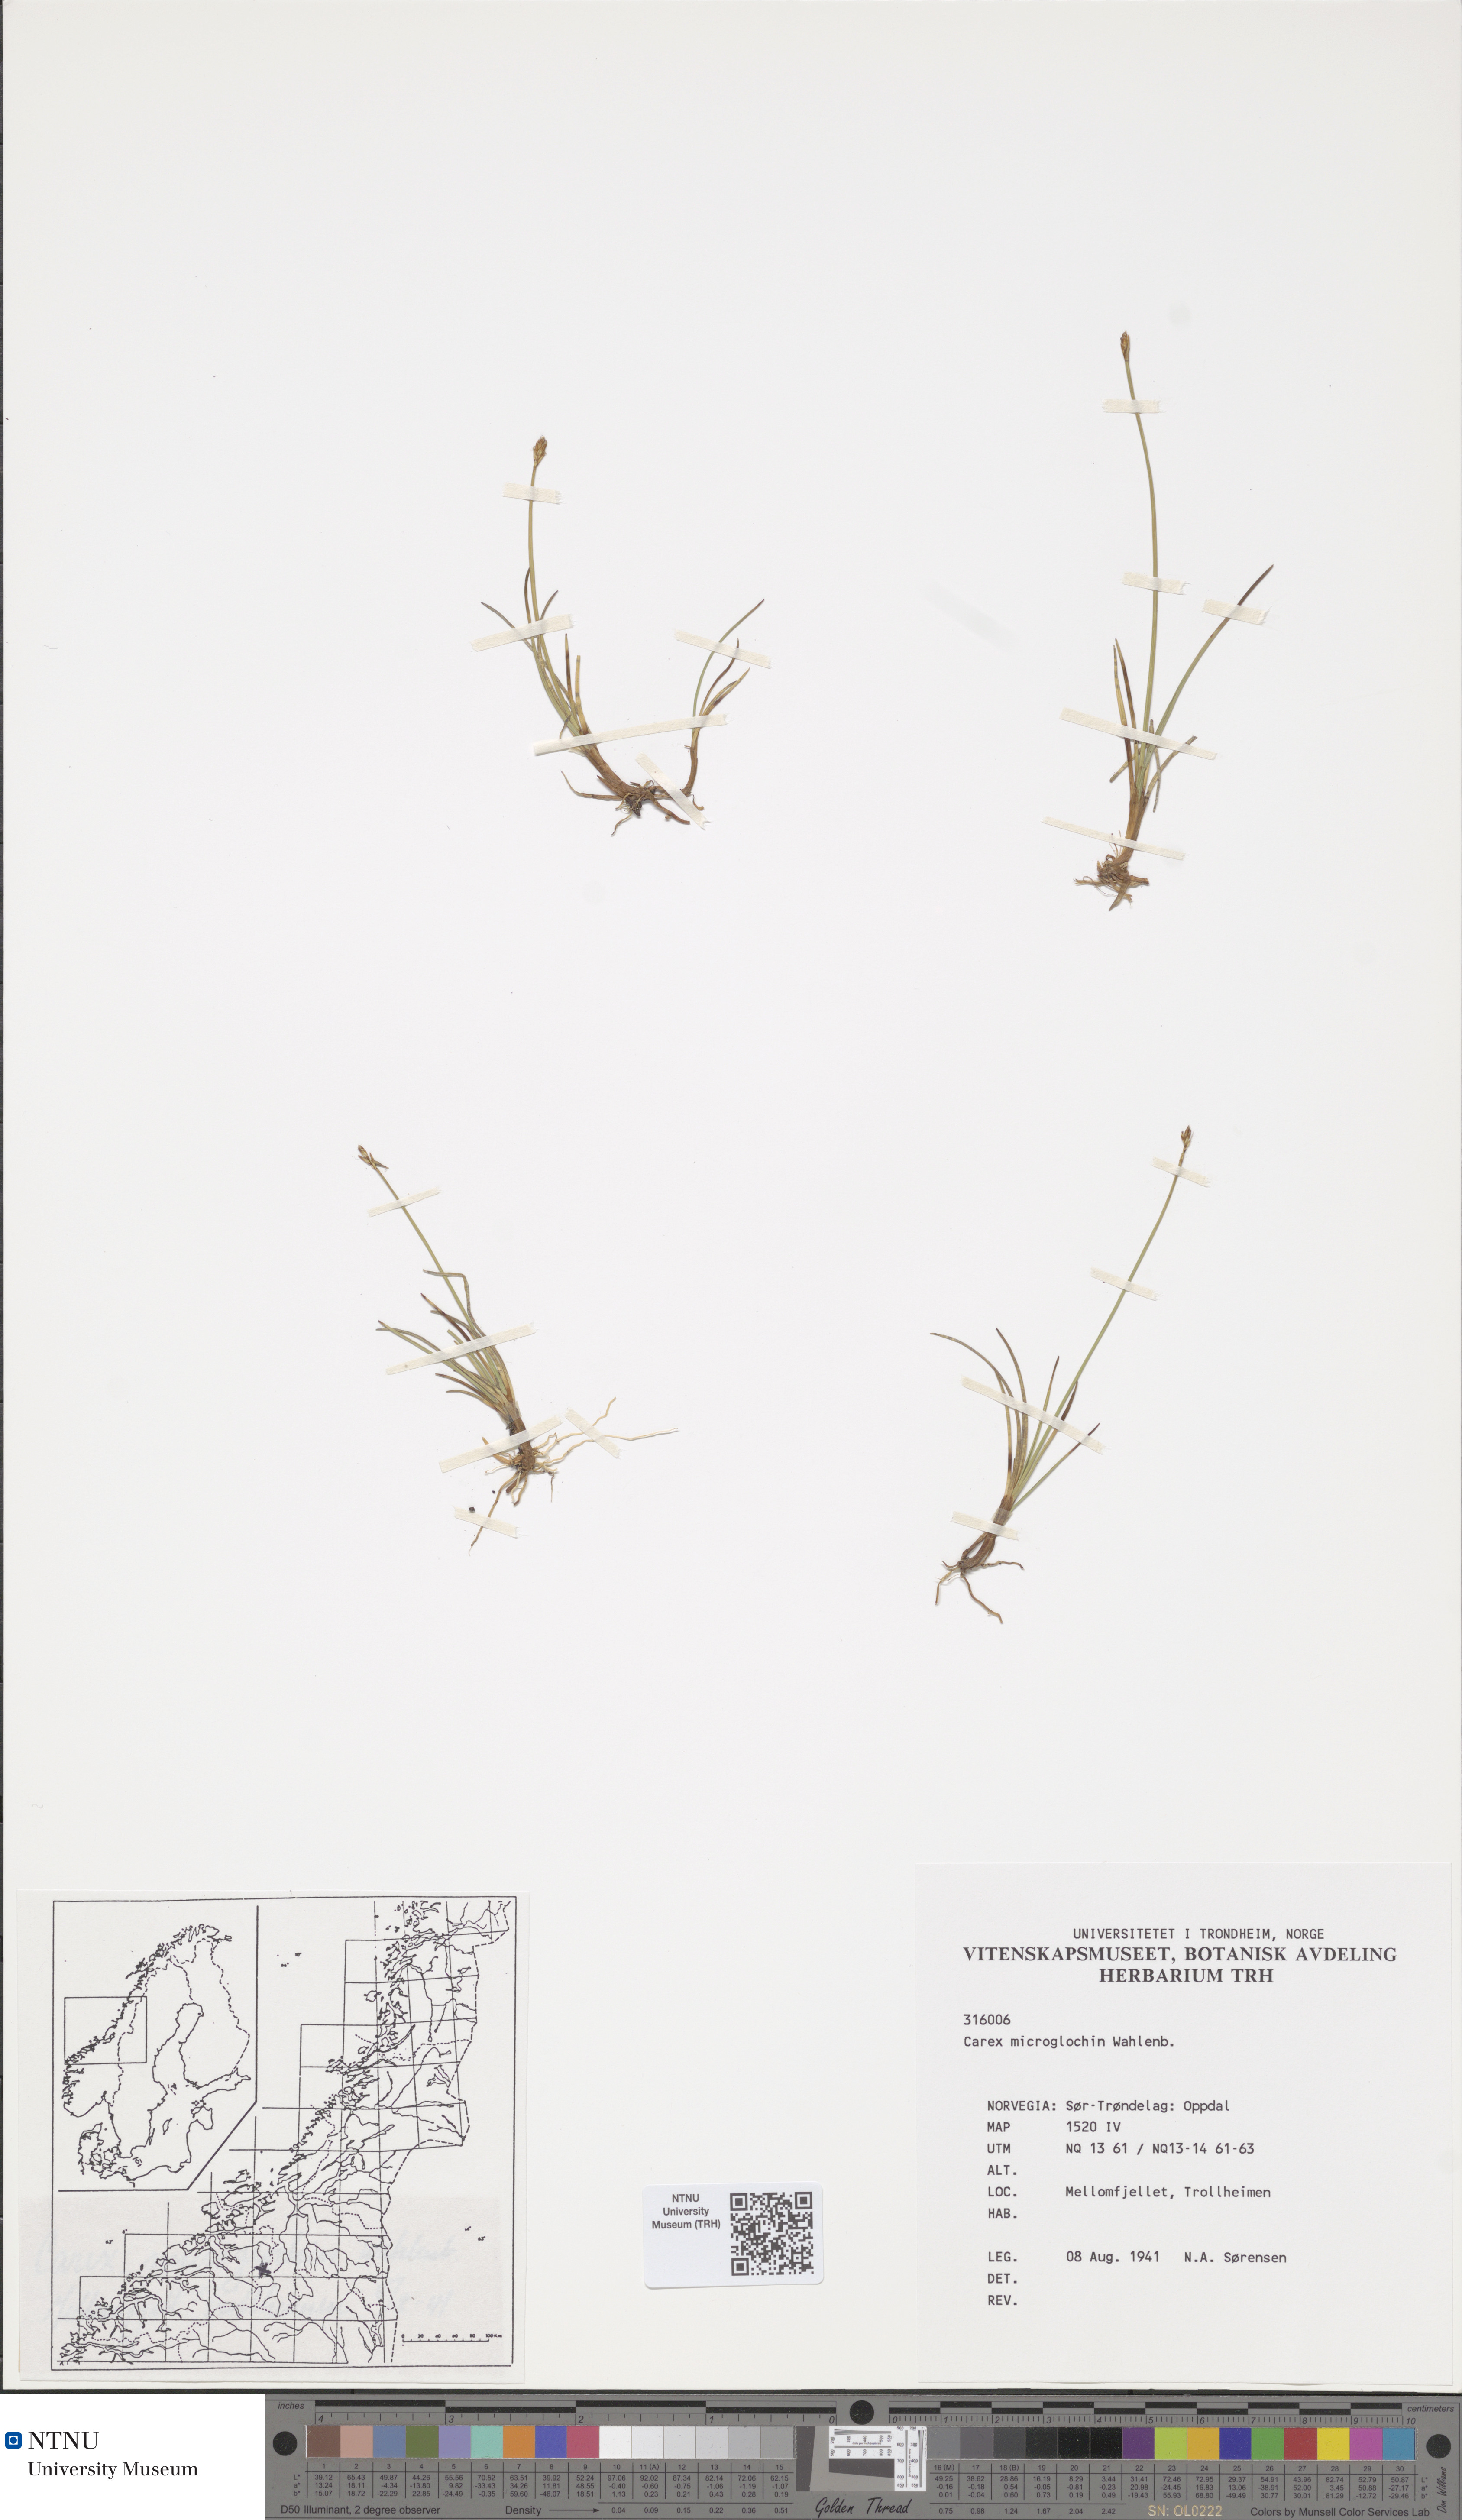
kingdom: Plantae
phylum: Tracheophyta
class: Liliopsida
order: Poales
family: Cyperaceae
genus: Carex
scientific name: Carex microglochin
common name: Bristle sedge
